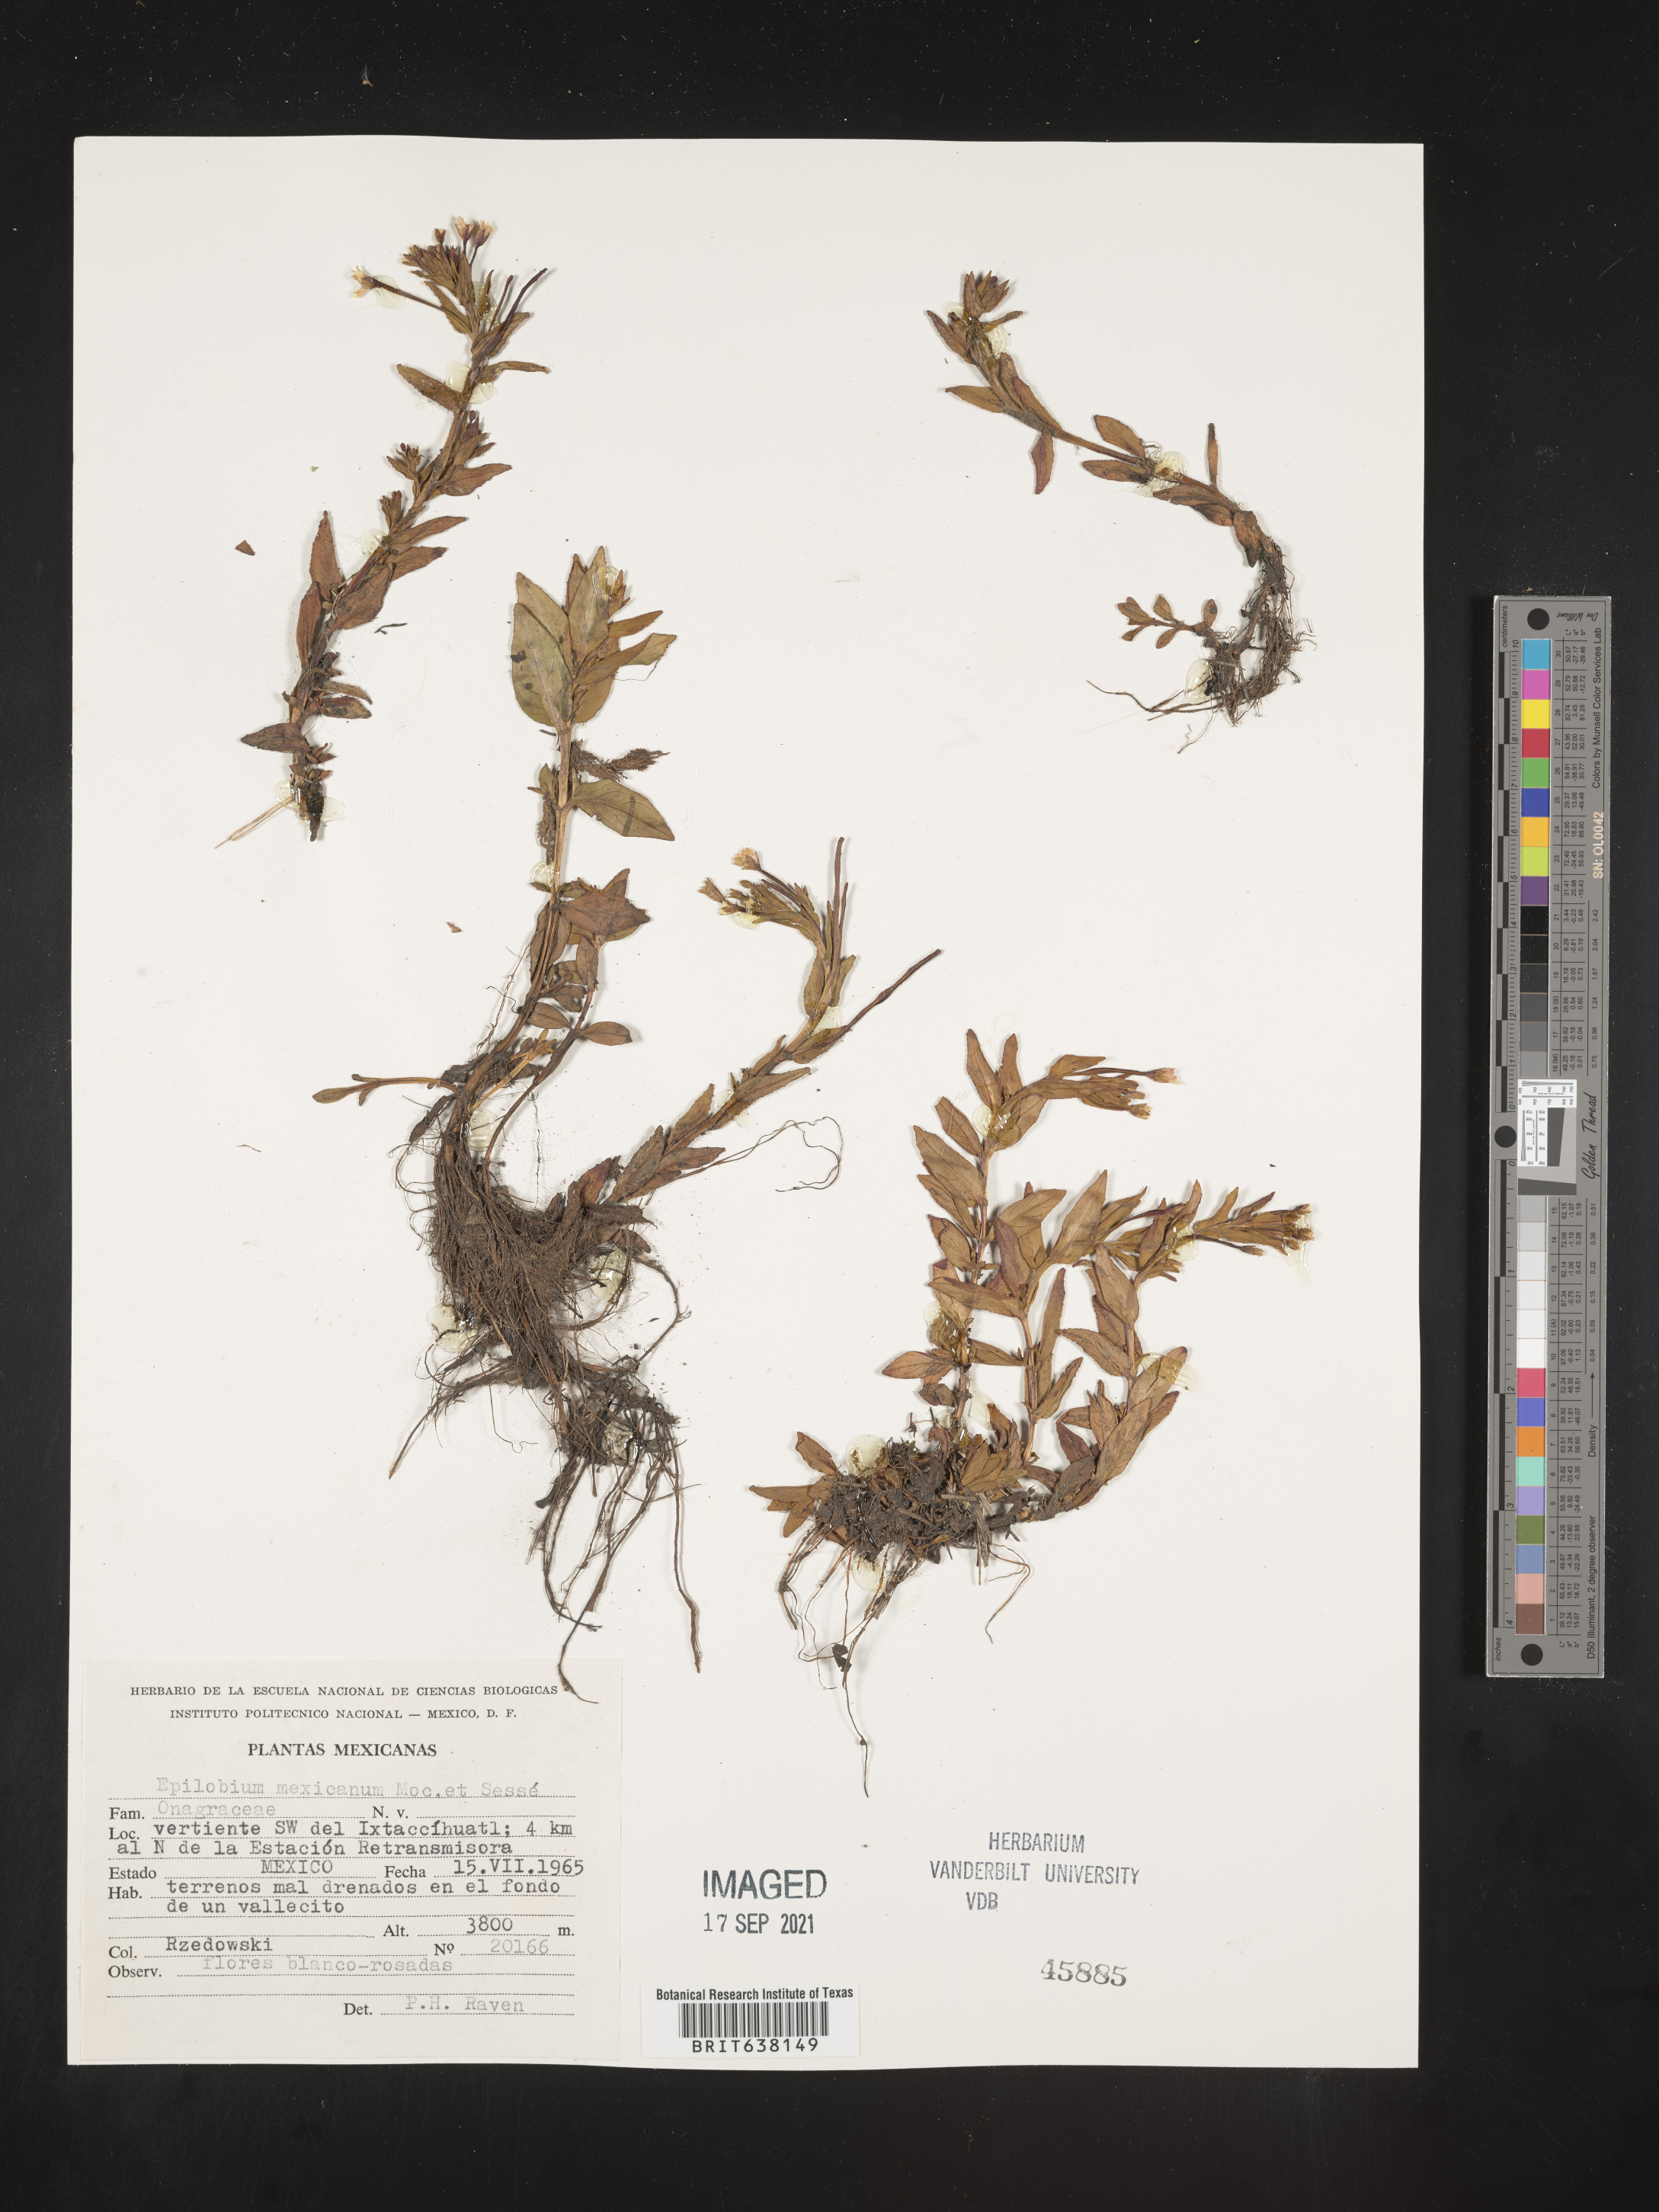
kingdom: Plantae
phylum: Tracheophyta
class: Magnoliopsida
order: Myrtales
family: Onagraceae
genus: Epilobium
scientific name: Epilobium
